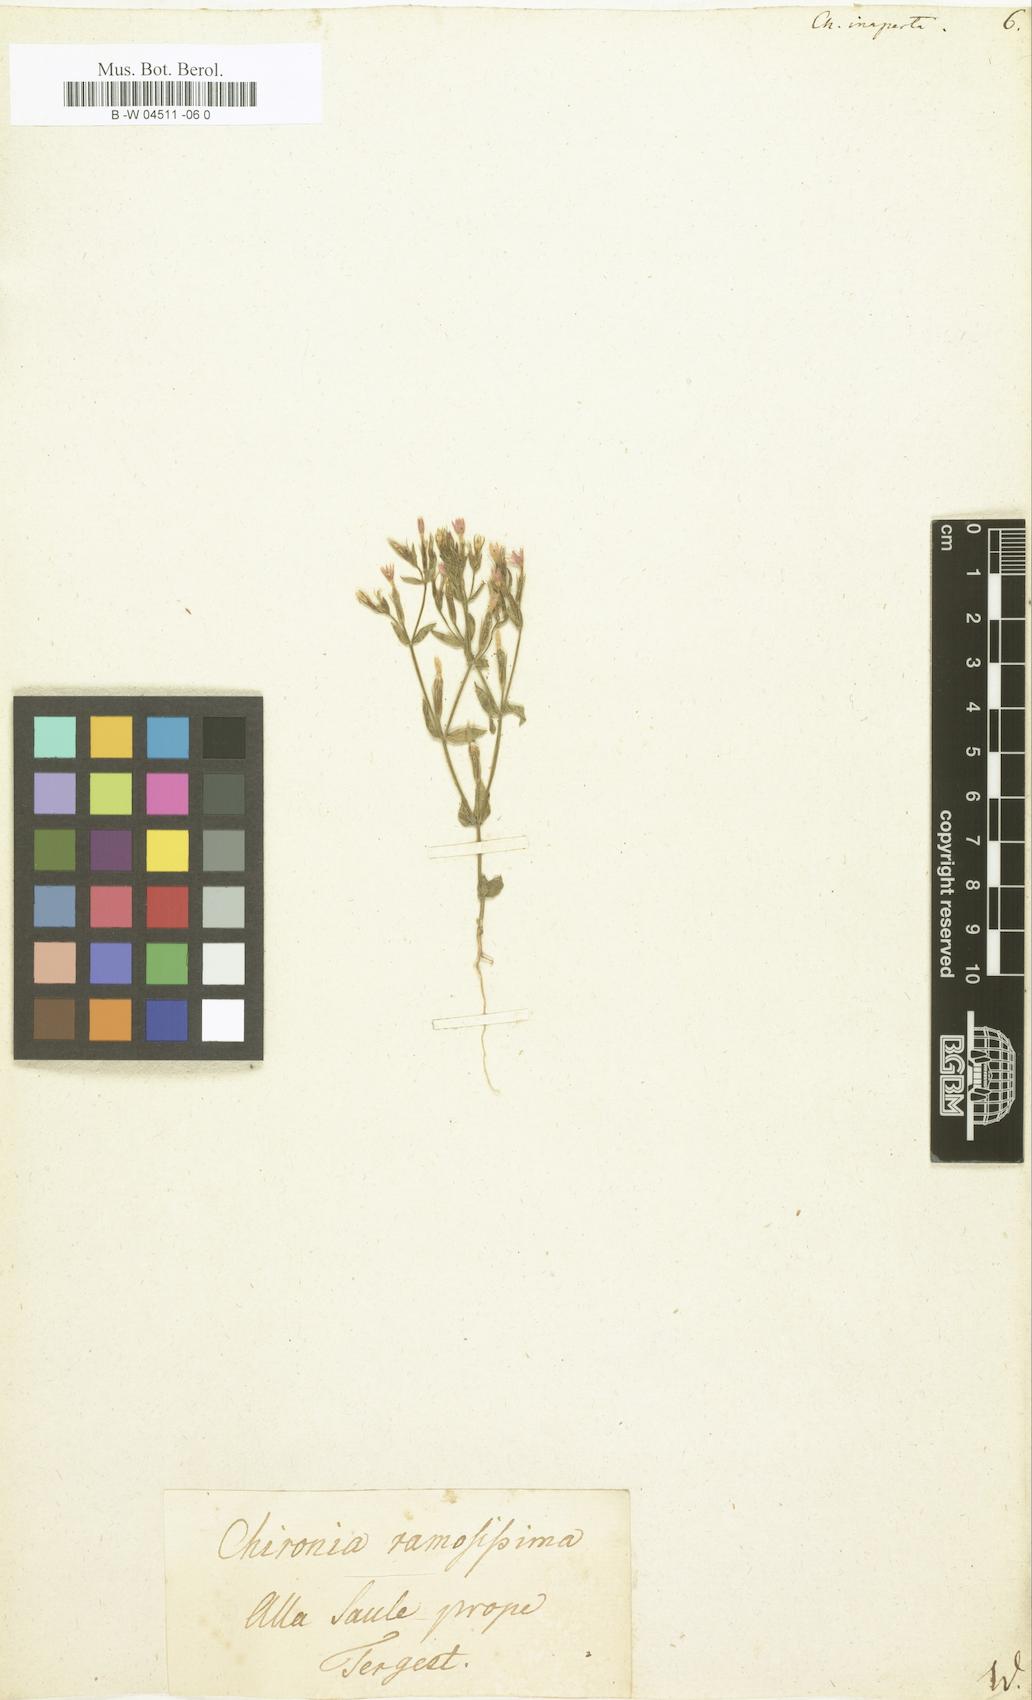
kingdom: Plantae
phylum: Tracheophyta
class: Magnoliopsida
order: Gentianales
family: Gentianaceae
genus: Centaurium
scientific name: Centaurium pulchellum
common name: Lesser centaury
